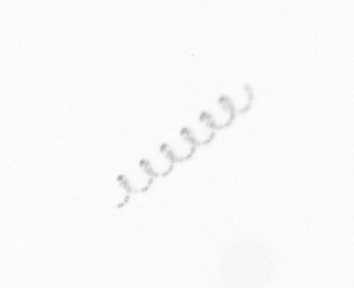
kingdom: Chromista
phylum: Ochrophyta
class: Bacillariophyceae
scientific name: Bacillariophyceae
